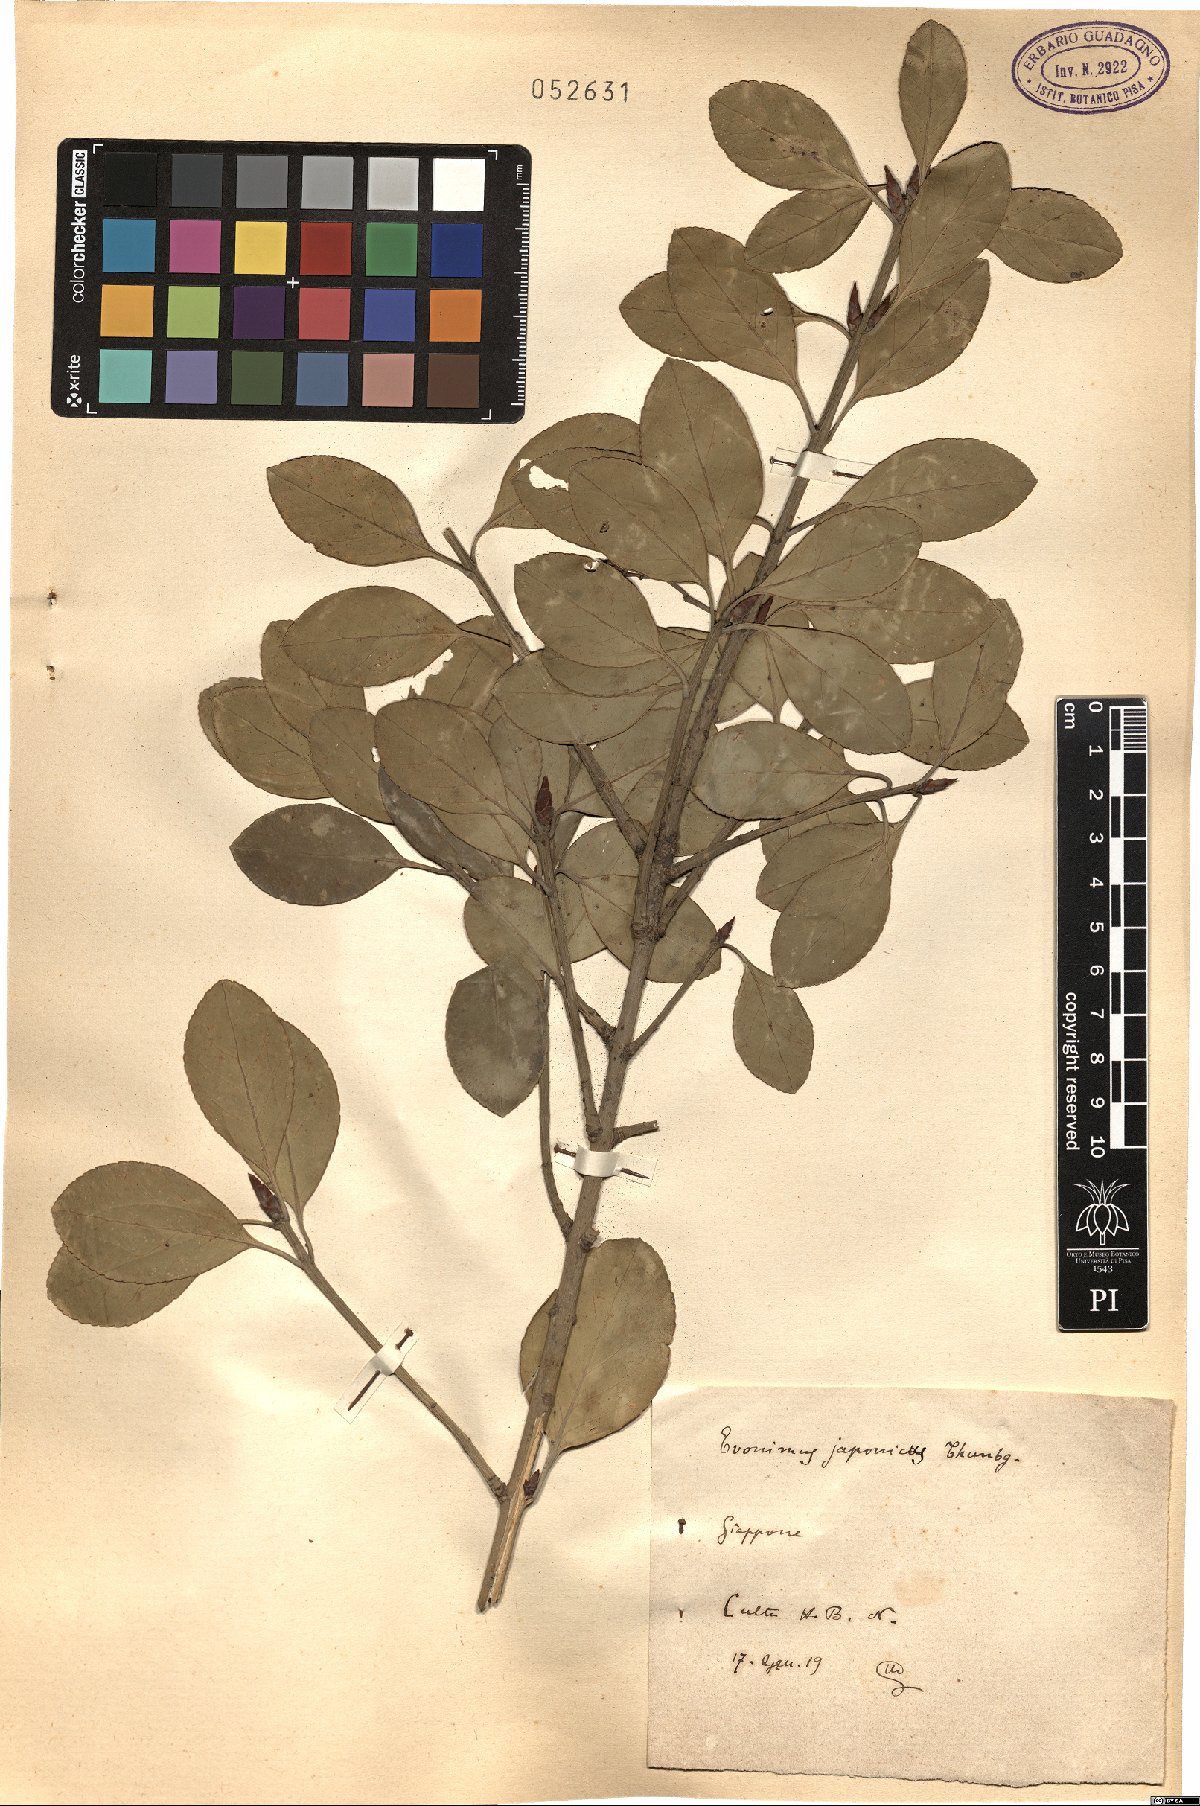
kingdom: Plantae
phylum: Tracheophyta
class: Magnoliopsida
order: Celastrales
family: Celastraceae
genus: Euonymus
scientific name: Euonymus fortunei
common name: Climbing euonymus
